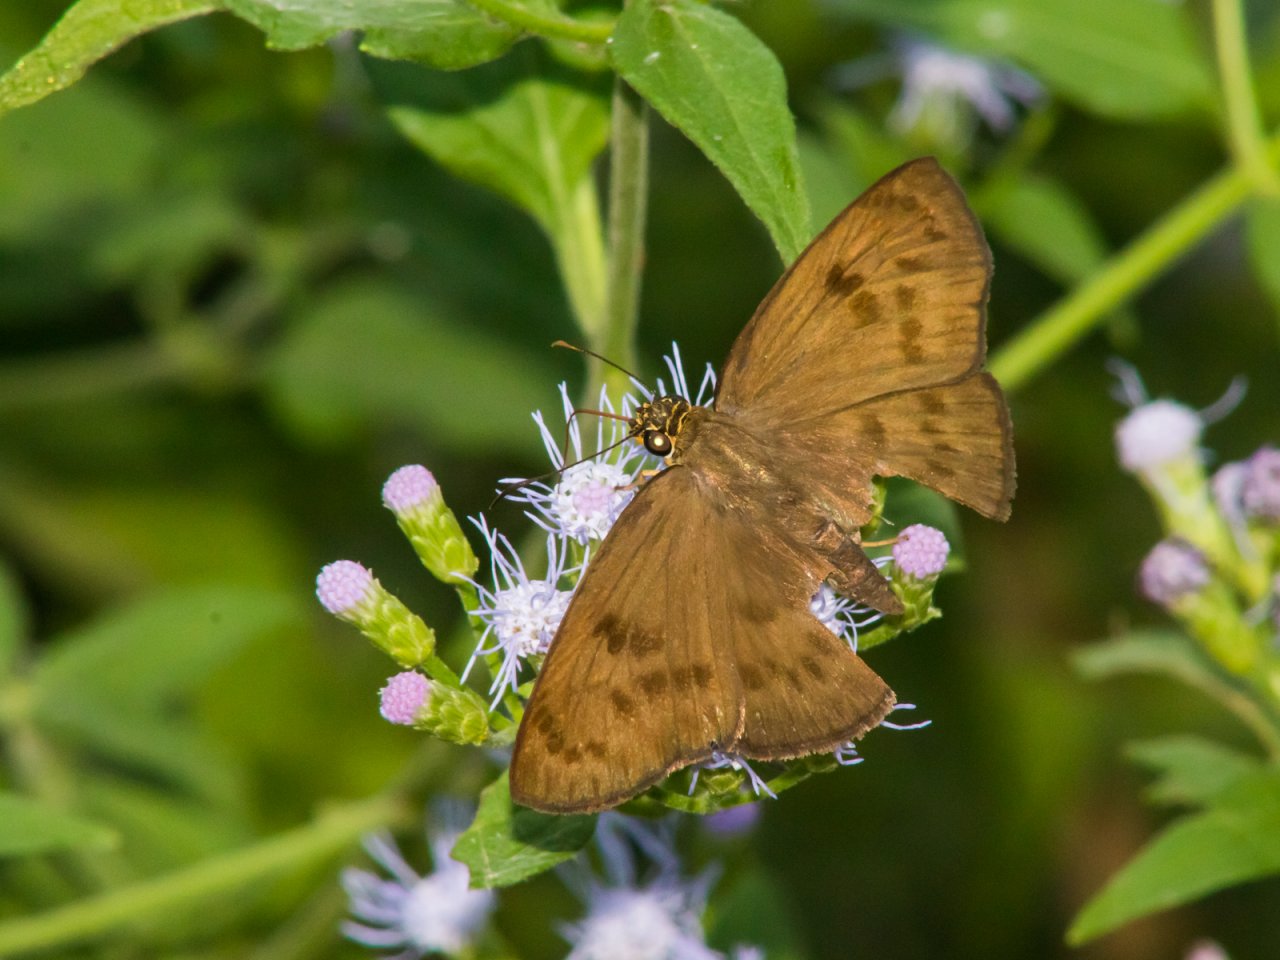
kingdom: Animalia
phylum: Arthropoda
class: Insecta
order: Lepidoptera
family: Hesperiidae
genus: Grais
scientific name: Grais stigmaticus
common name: Hermit Skipper
